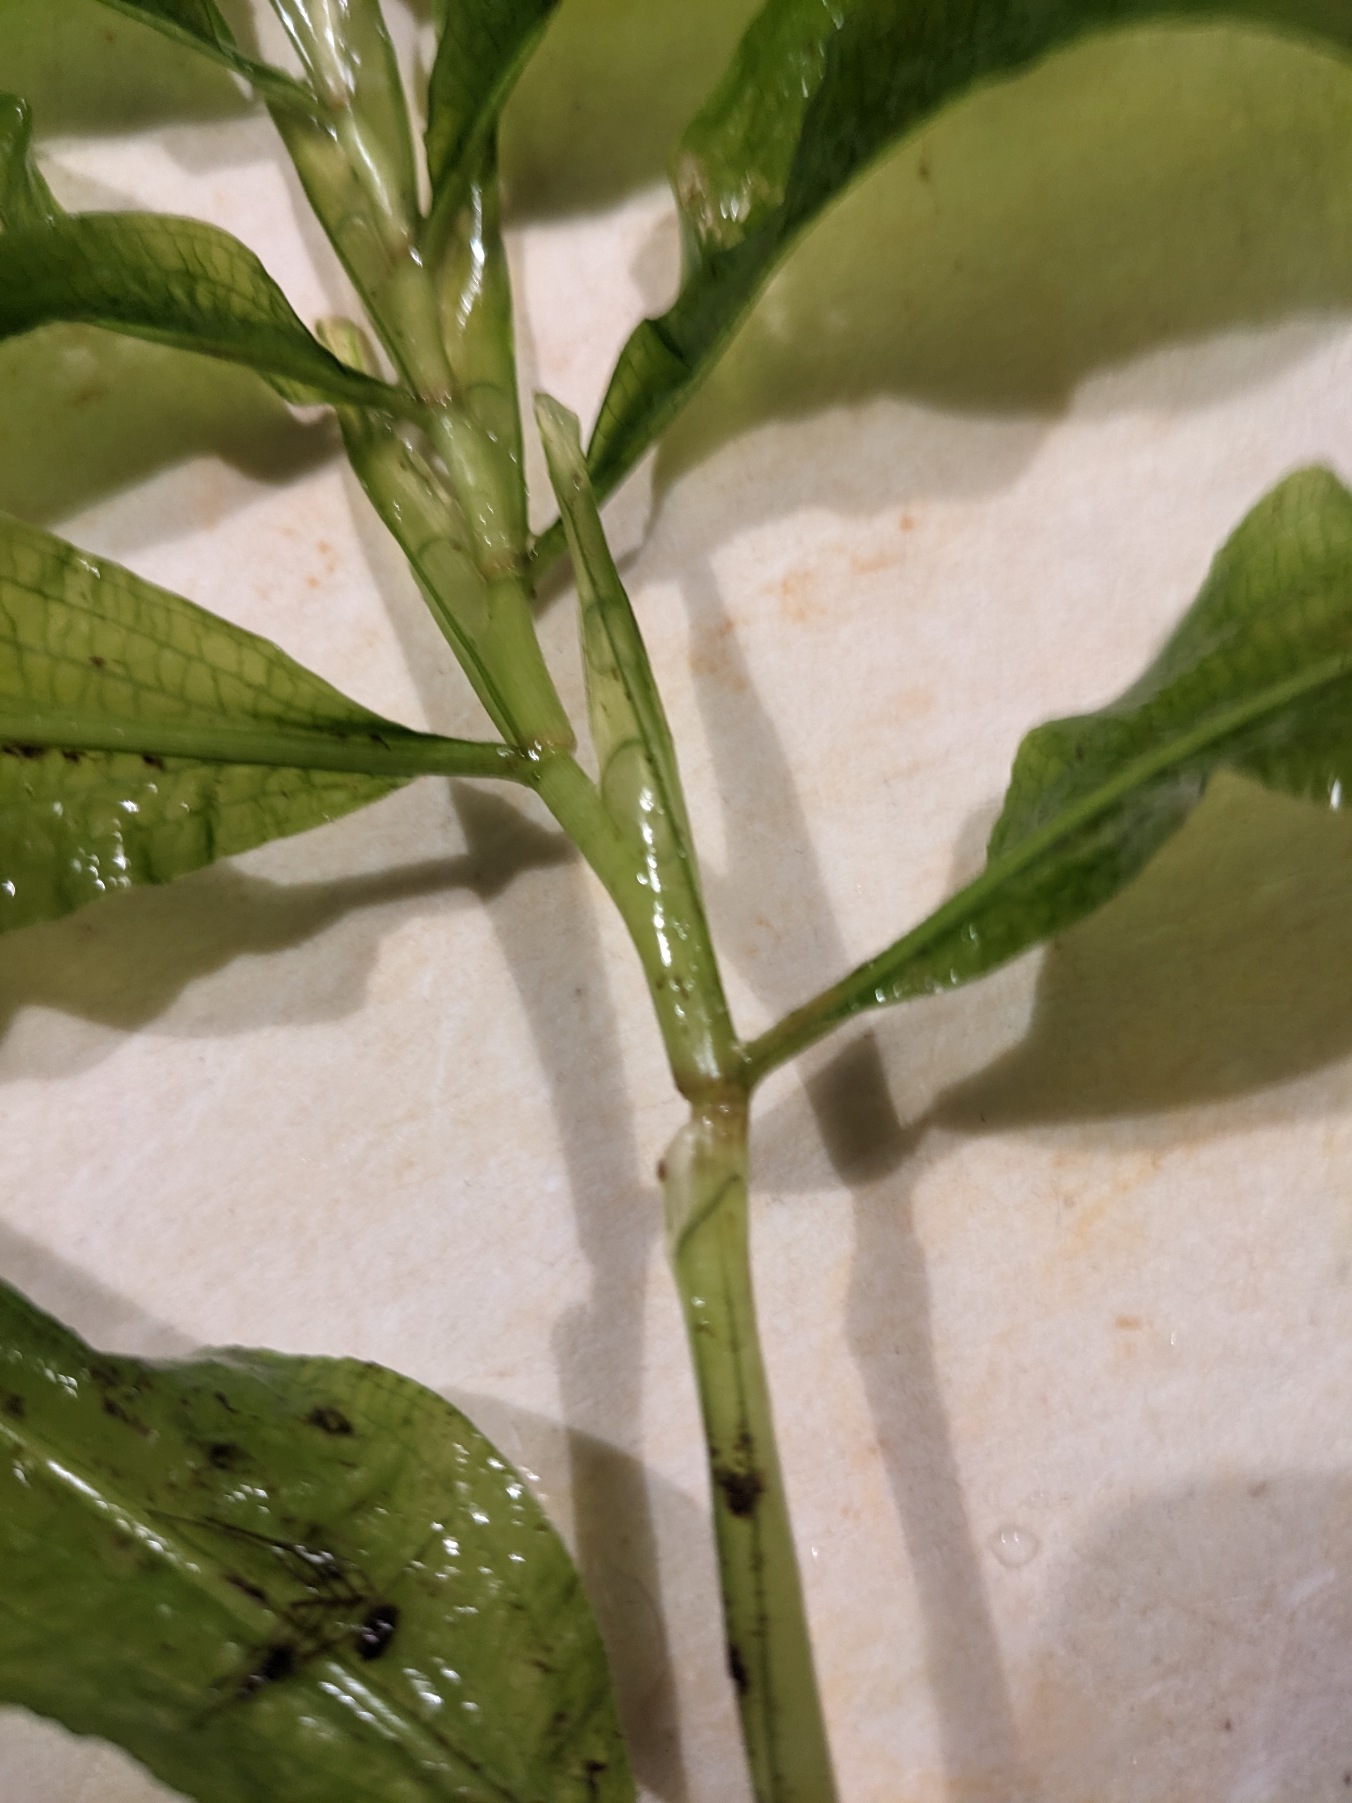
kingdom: Plantae
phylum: Tracheophyta
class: Liliopsida
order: Alismatales
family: Potamogetonaceae
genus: Potamogeton
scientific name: Potamogeton lucens
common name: Glinsende vandaks
